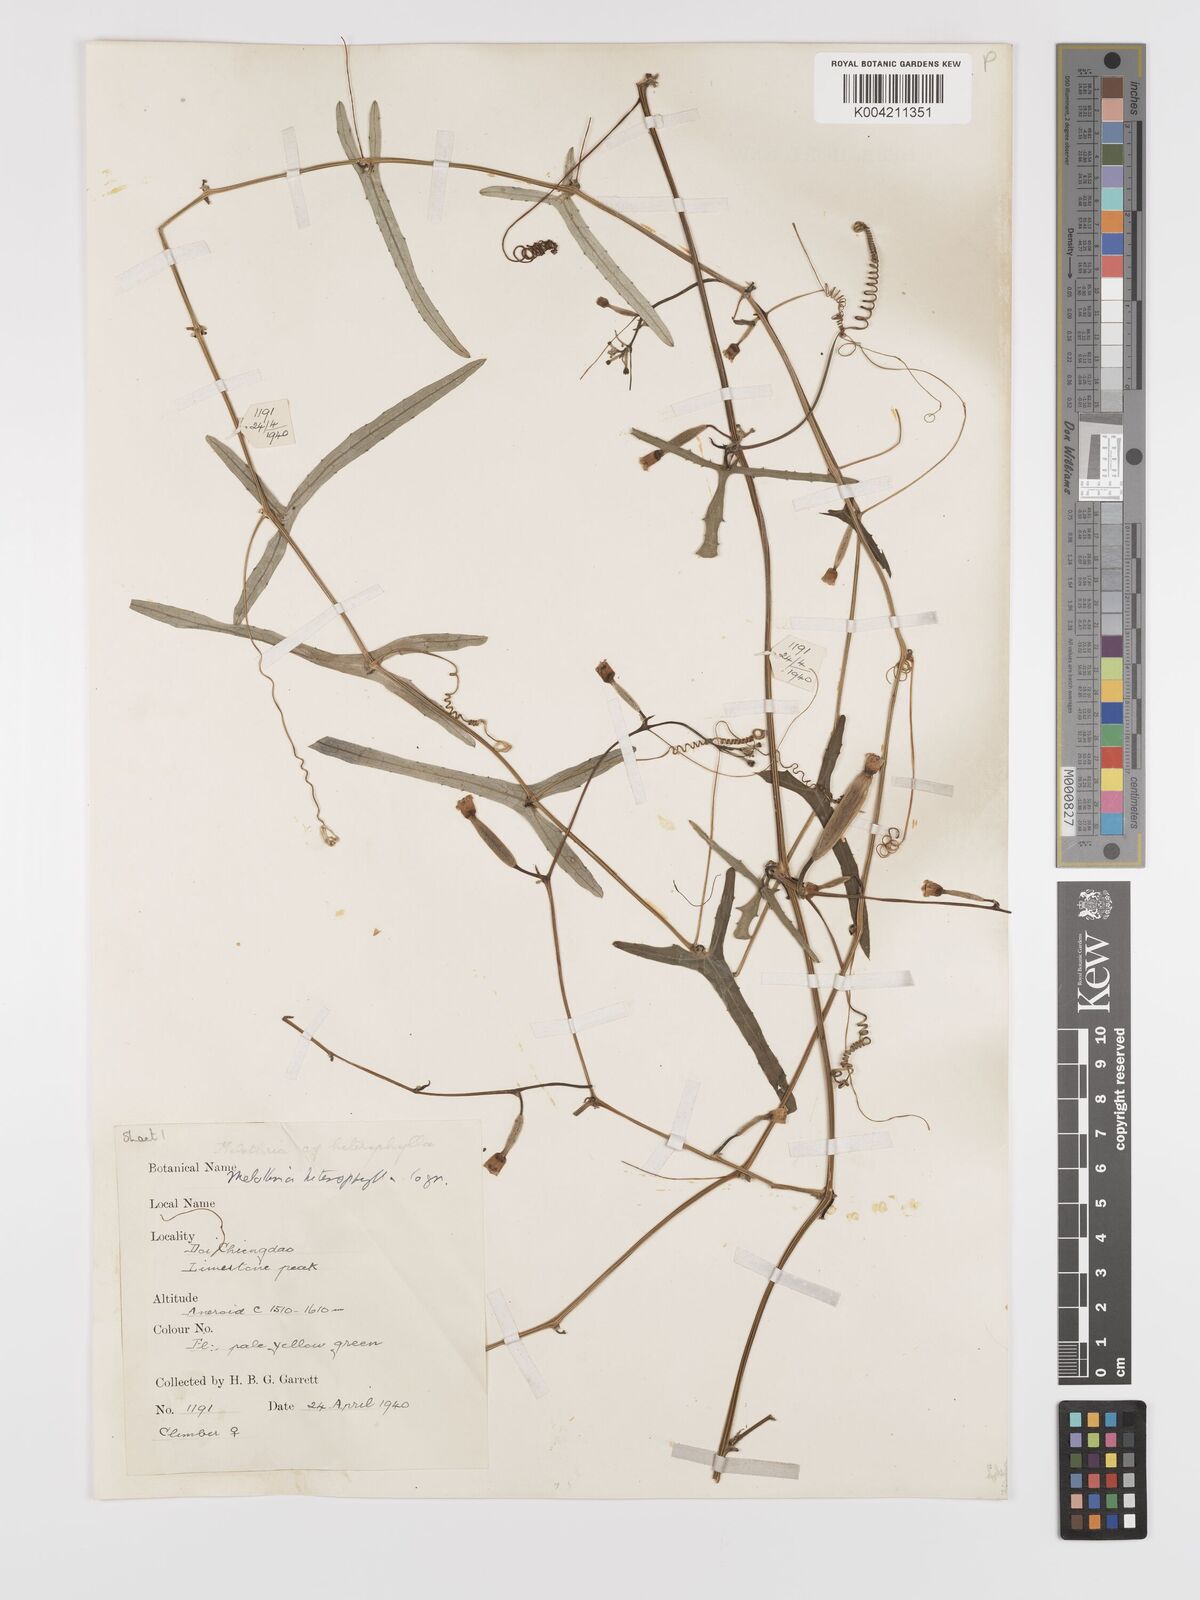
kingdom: Plantae
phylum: Tracheophyta
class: Magnoliopsida
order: Cucurbitales
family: Cucurbitaceae
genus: Solena
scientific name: Solena amplexicaulis
